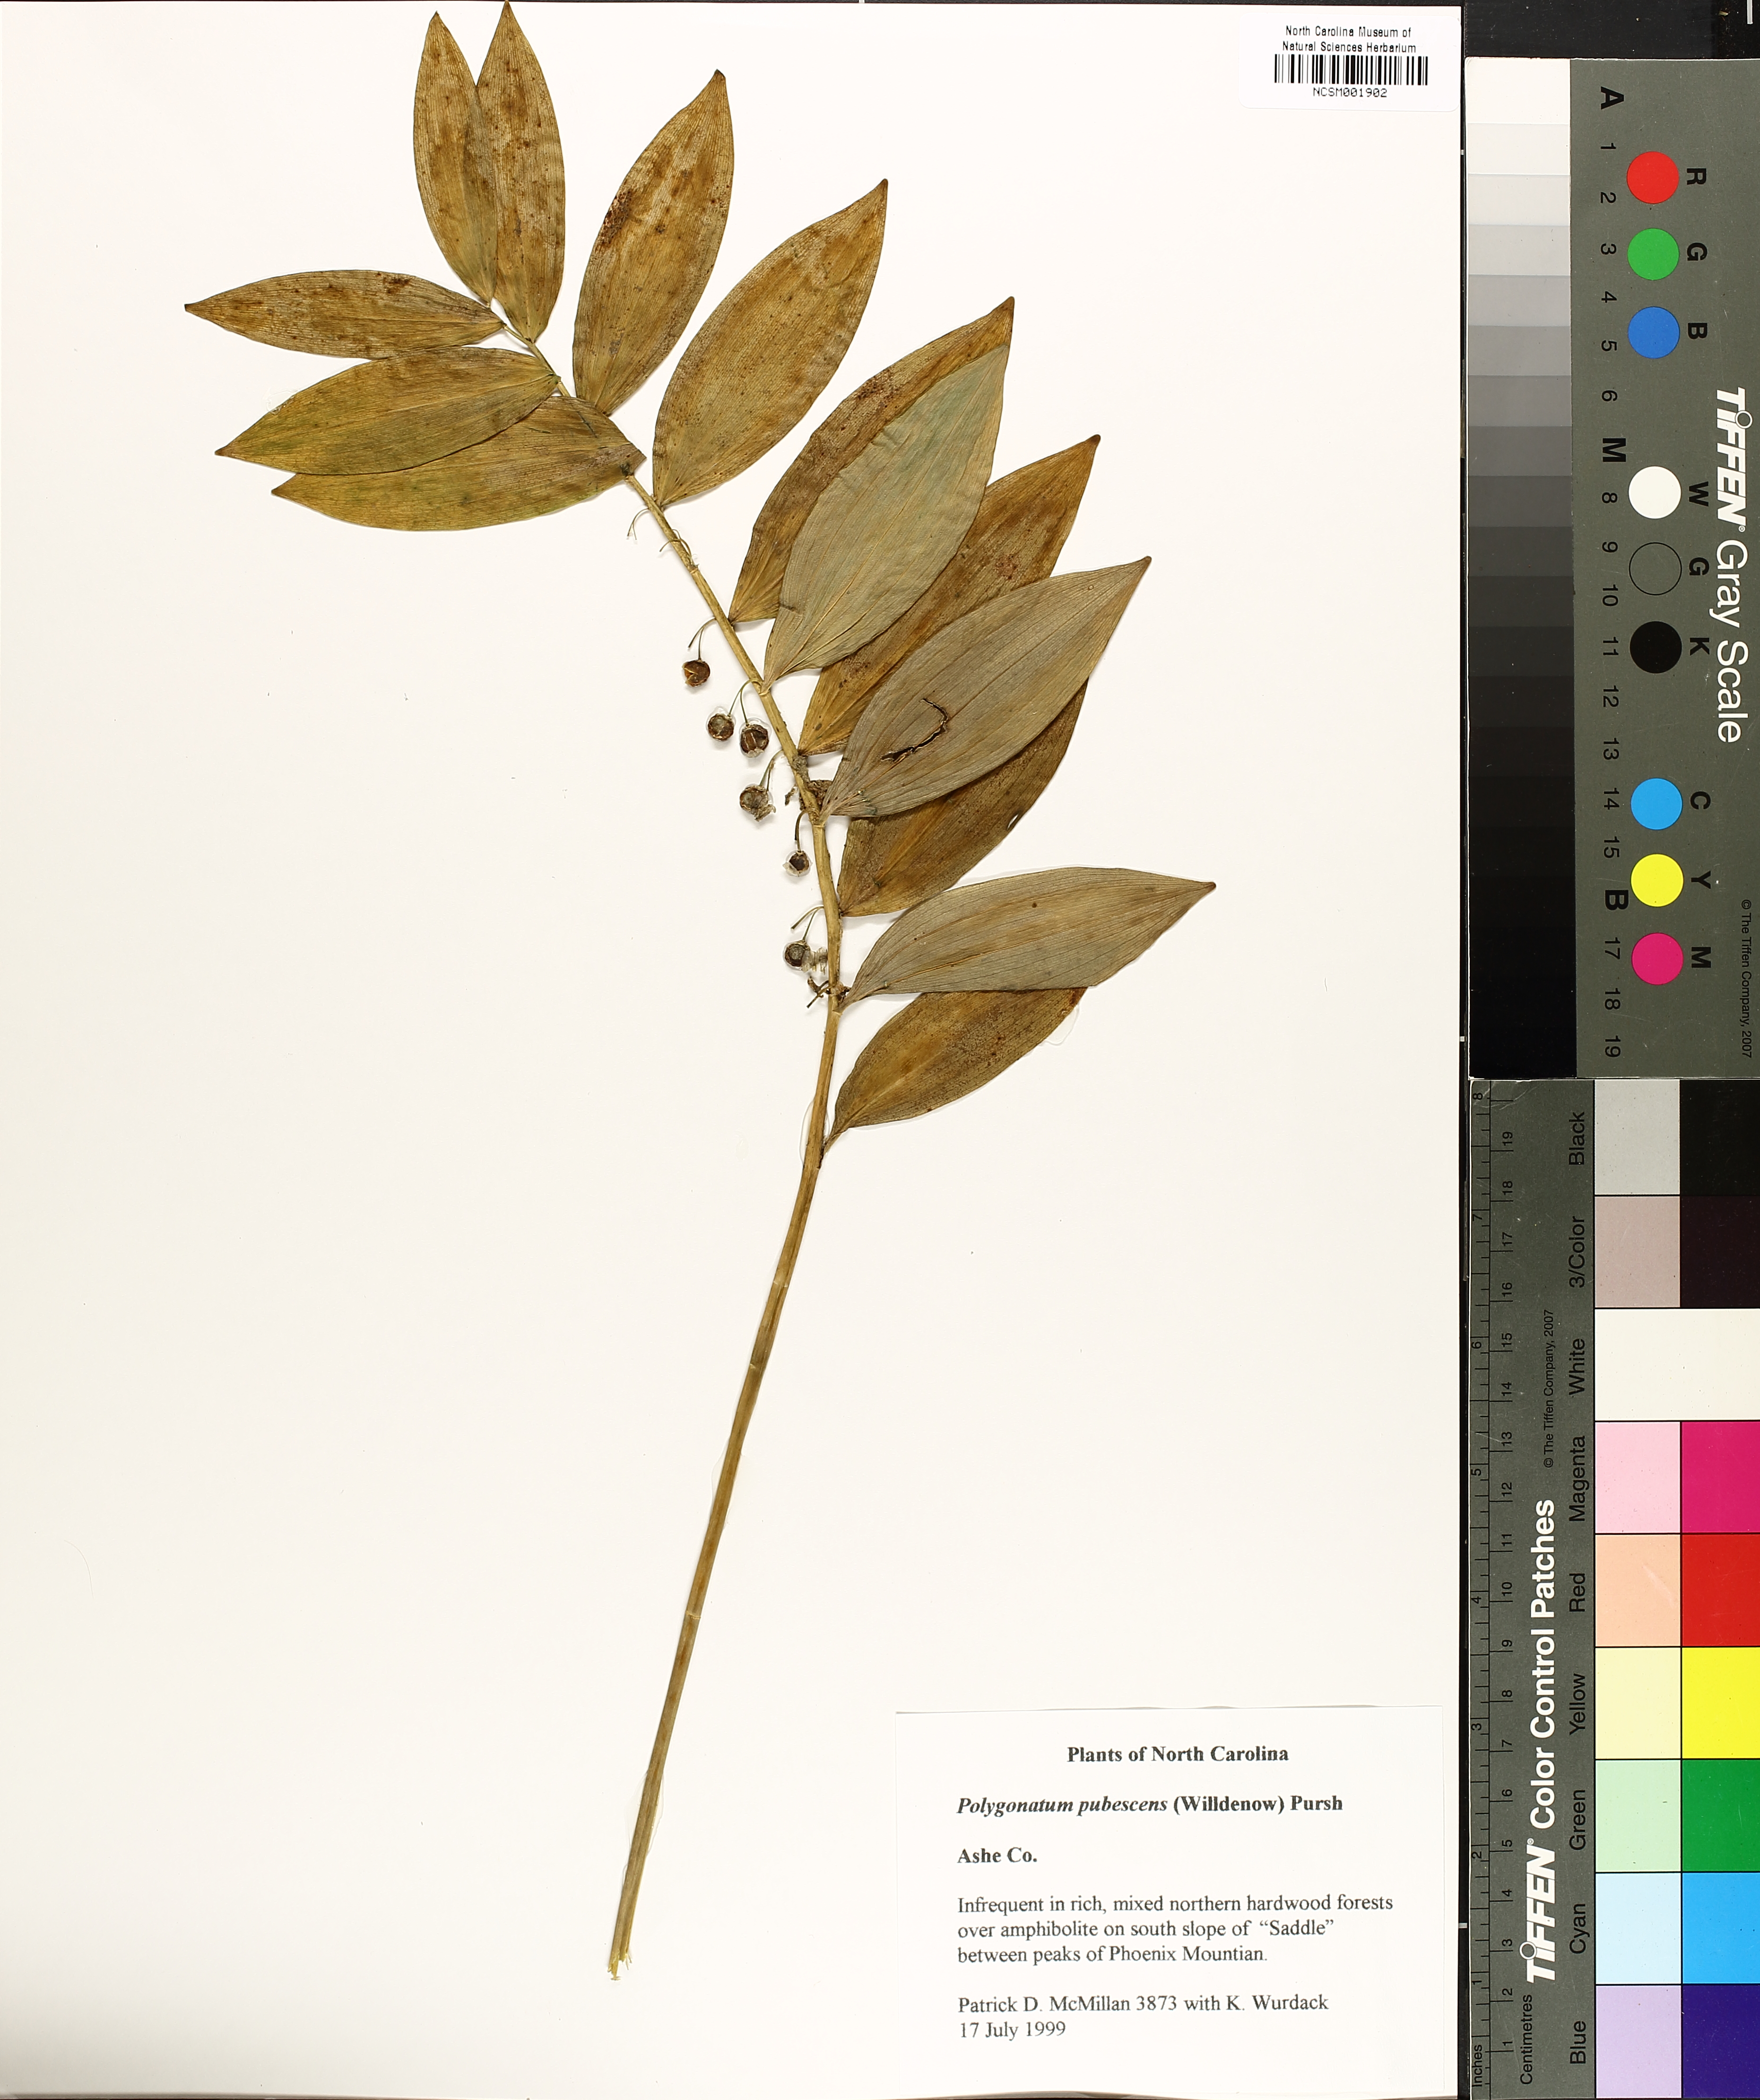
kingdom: Plantae
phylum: Tracheophyta
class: Liliopsida
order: Asparagales
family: Asparagaceae
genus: Polygonatum
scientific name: Polygonatum pubescens
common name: Downy solomon's seal
